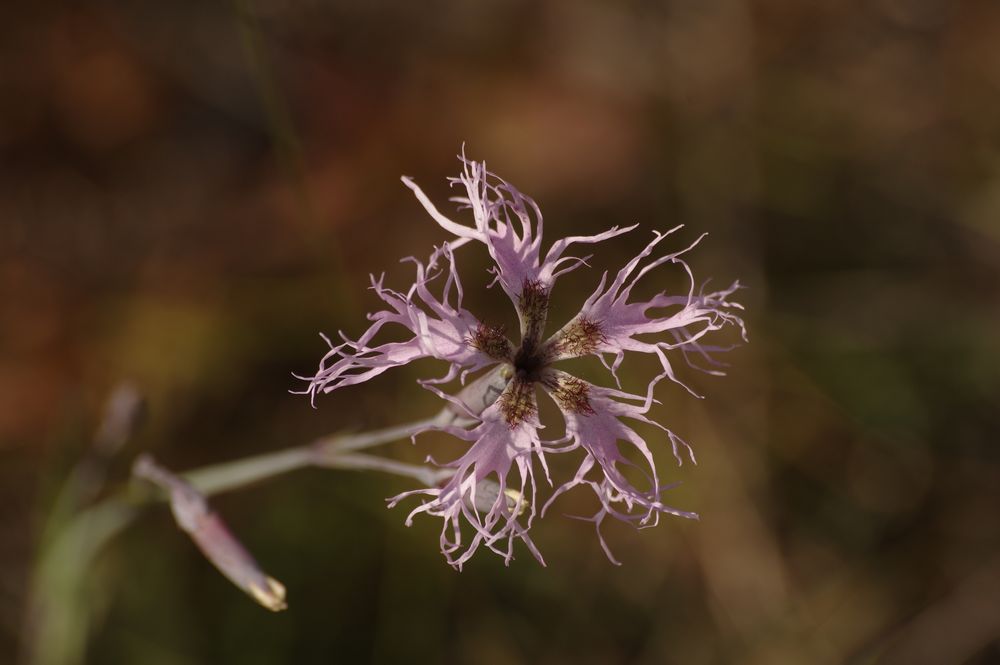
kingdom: Plantae
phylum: Tracheophyta
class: Magnoliopsida
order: Caryophyllales
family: Caryophyllaceae
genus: Dianthus
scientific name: Dianthus superbus
